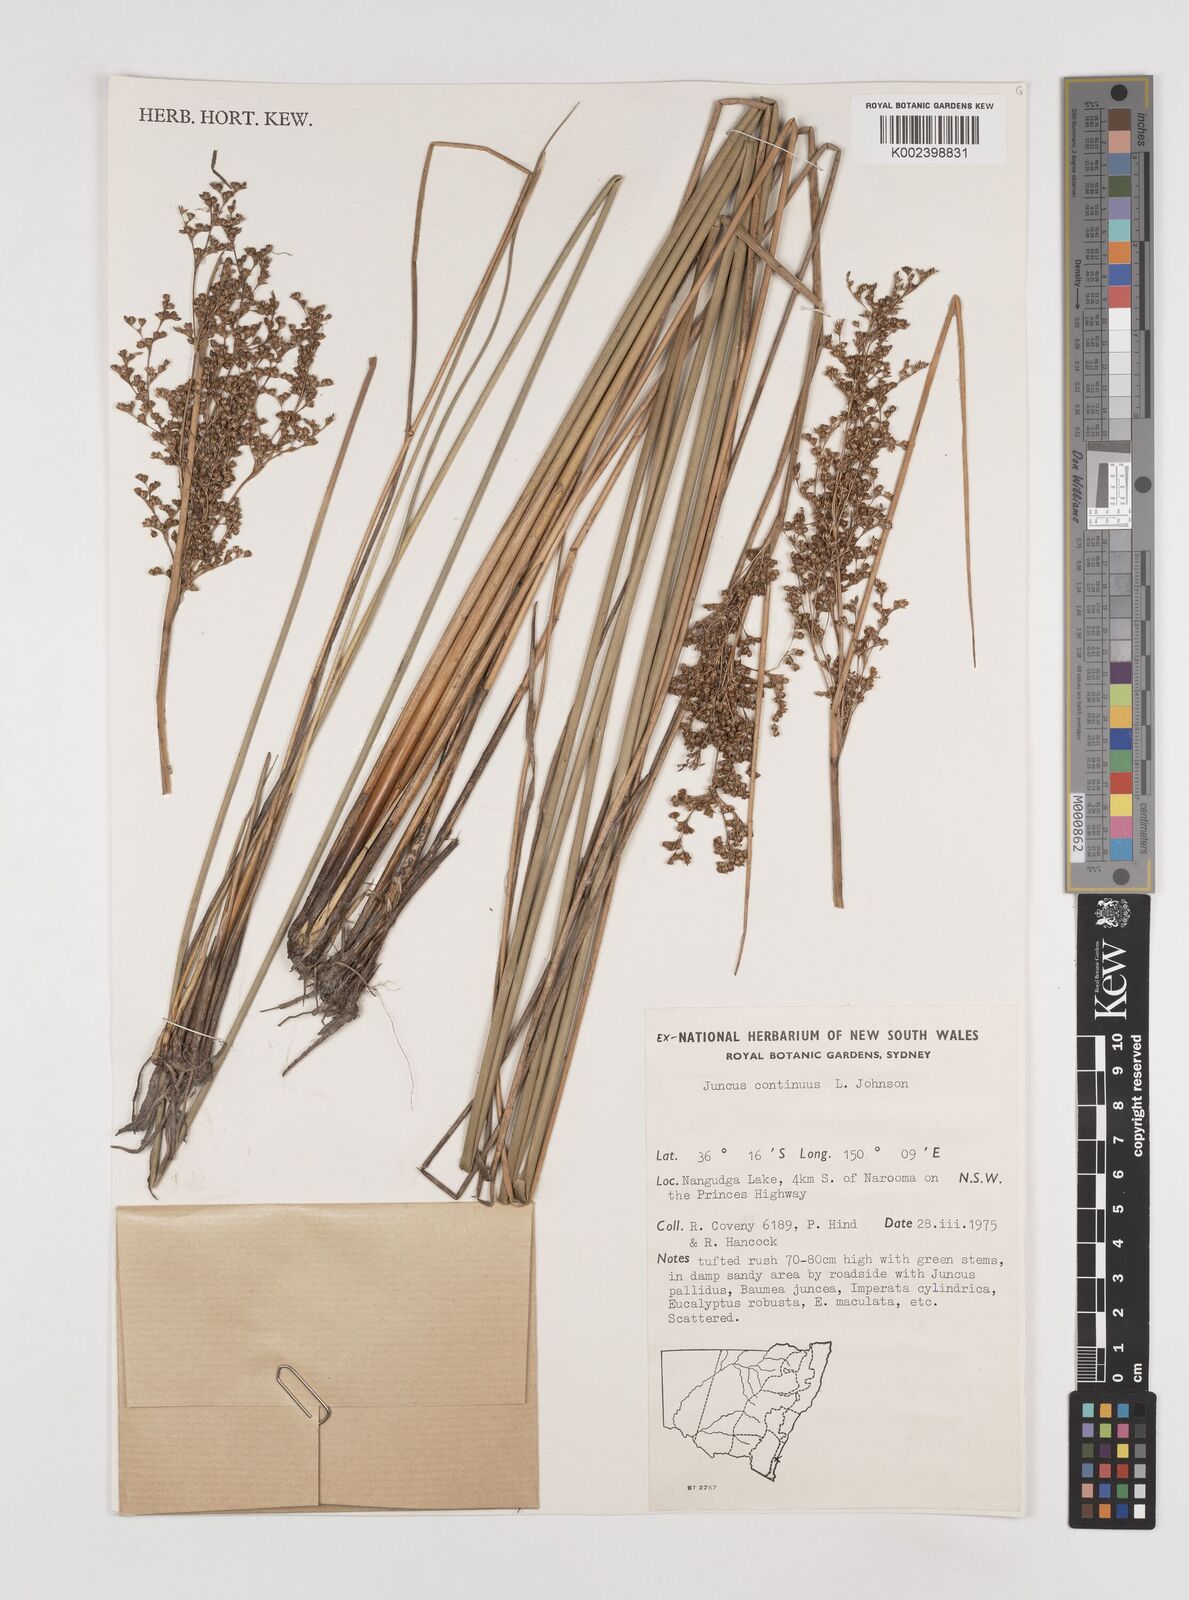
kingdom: Plantae
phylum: Tracheophyta
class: Liliopsida
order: Poales
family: Juncaceae
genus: Juncus
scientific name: Juncus continuus
